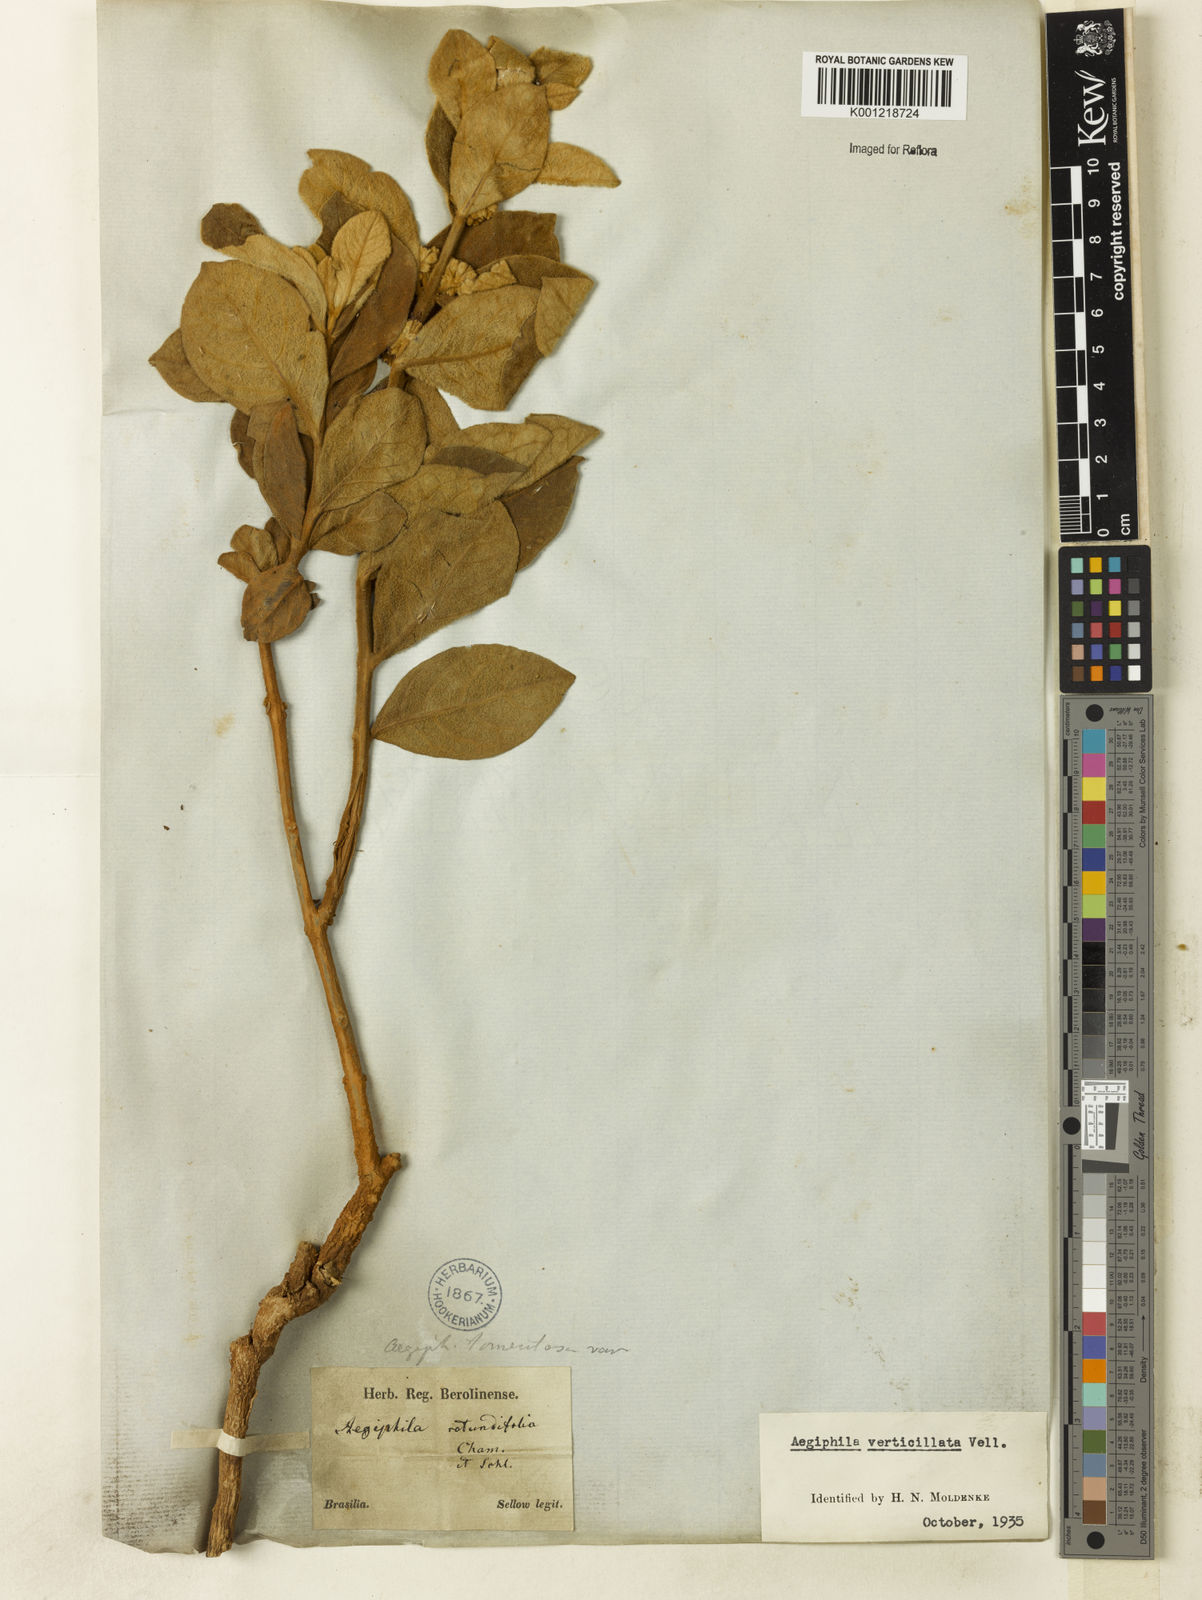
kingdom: Plantae
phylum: Tracheophyta
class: Magnoliopsida
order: Lamiales
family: Lamiaceae
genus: Aegiphila
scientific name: Aegiphila verticillata
